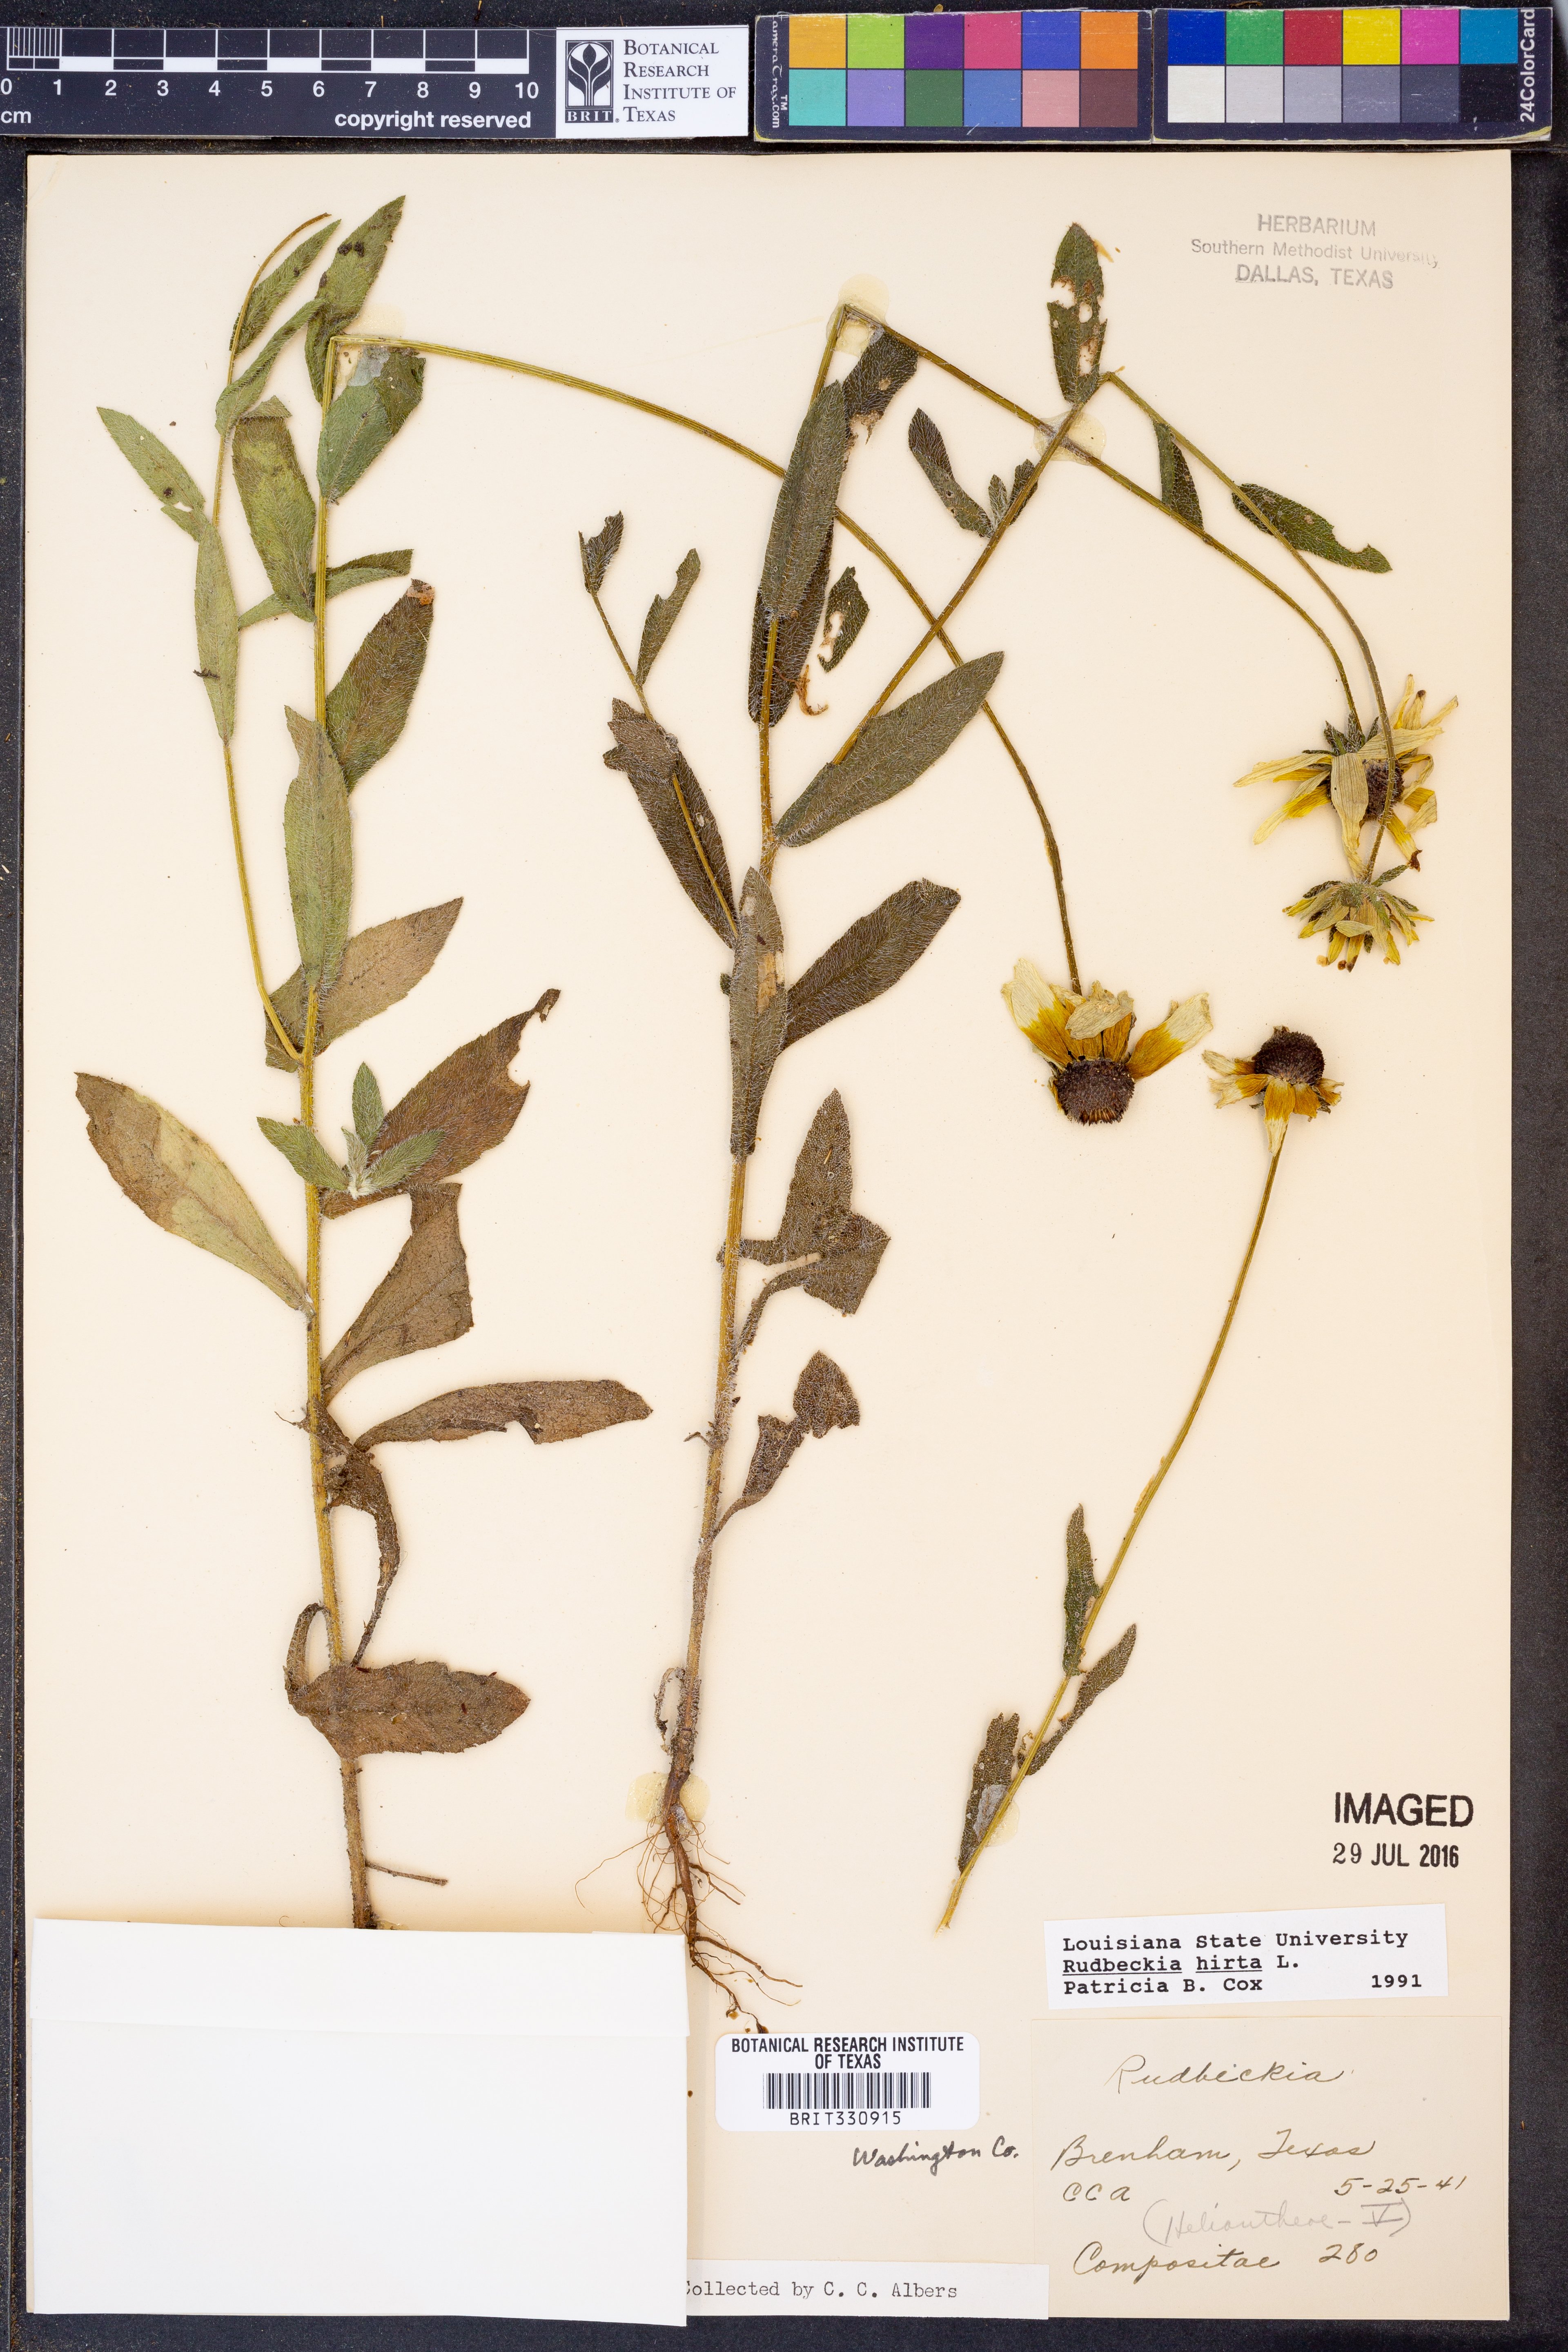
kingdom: Plantae
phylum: Tracheophyta
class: Magnoliopsida
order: Asterales
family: Asteraceae
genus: Rudbeckia
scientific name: Rudbeckia hirta
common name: Black-eyed-susan
